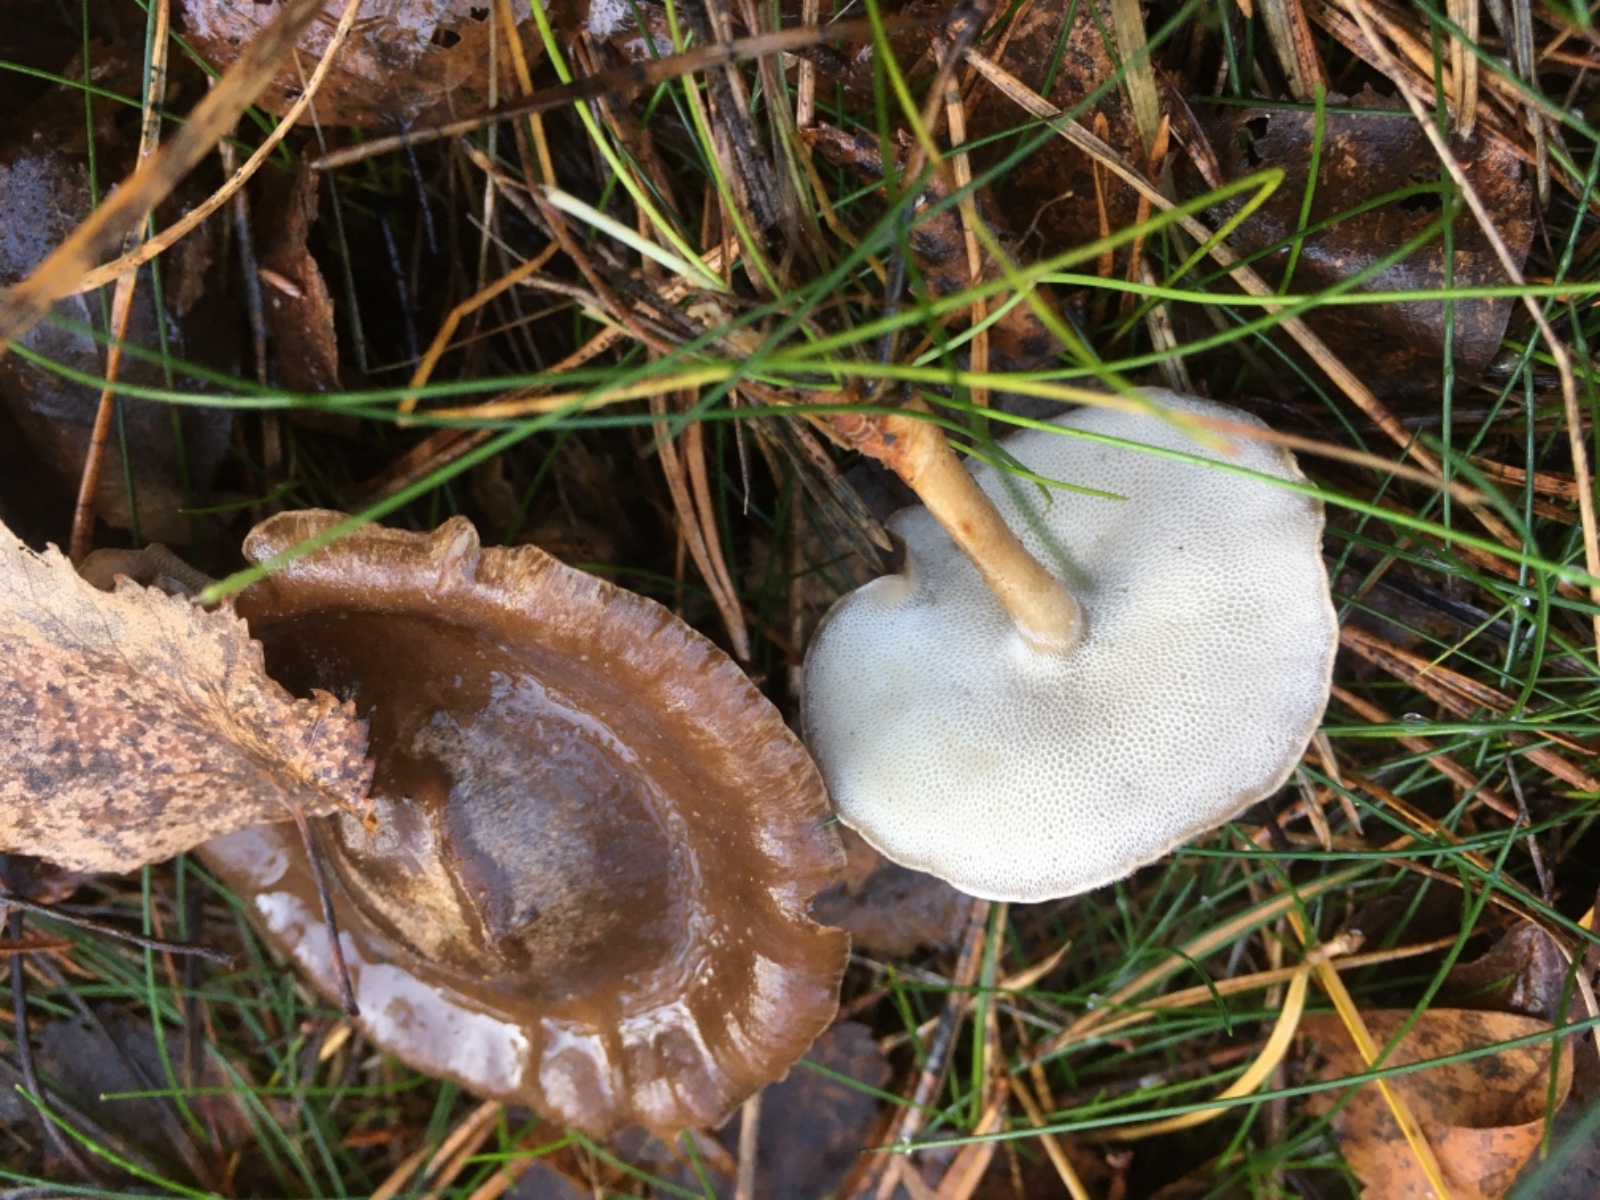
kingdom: Fungi
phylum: Basidiomycota
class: Agaricomycetes
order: Polyporales
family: Polyporaceae
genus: Lentinus
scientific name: Lentinus brumalis
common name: vinter-stilkporesvamp
